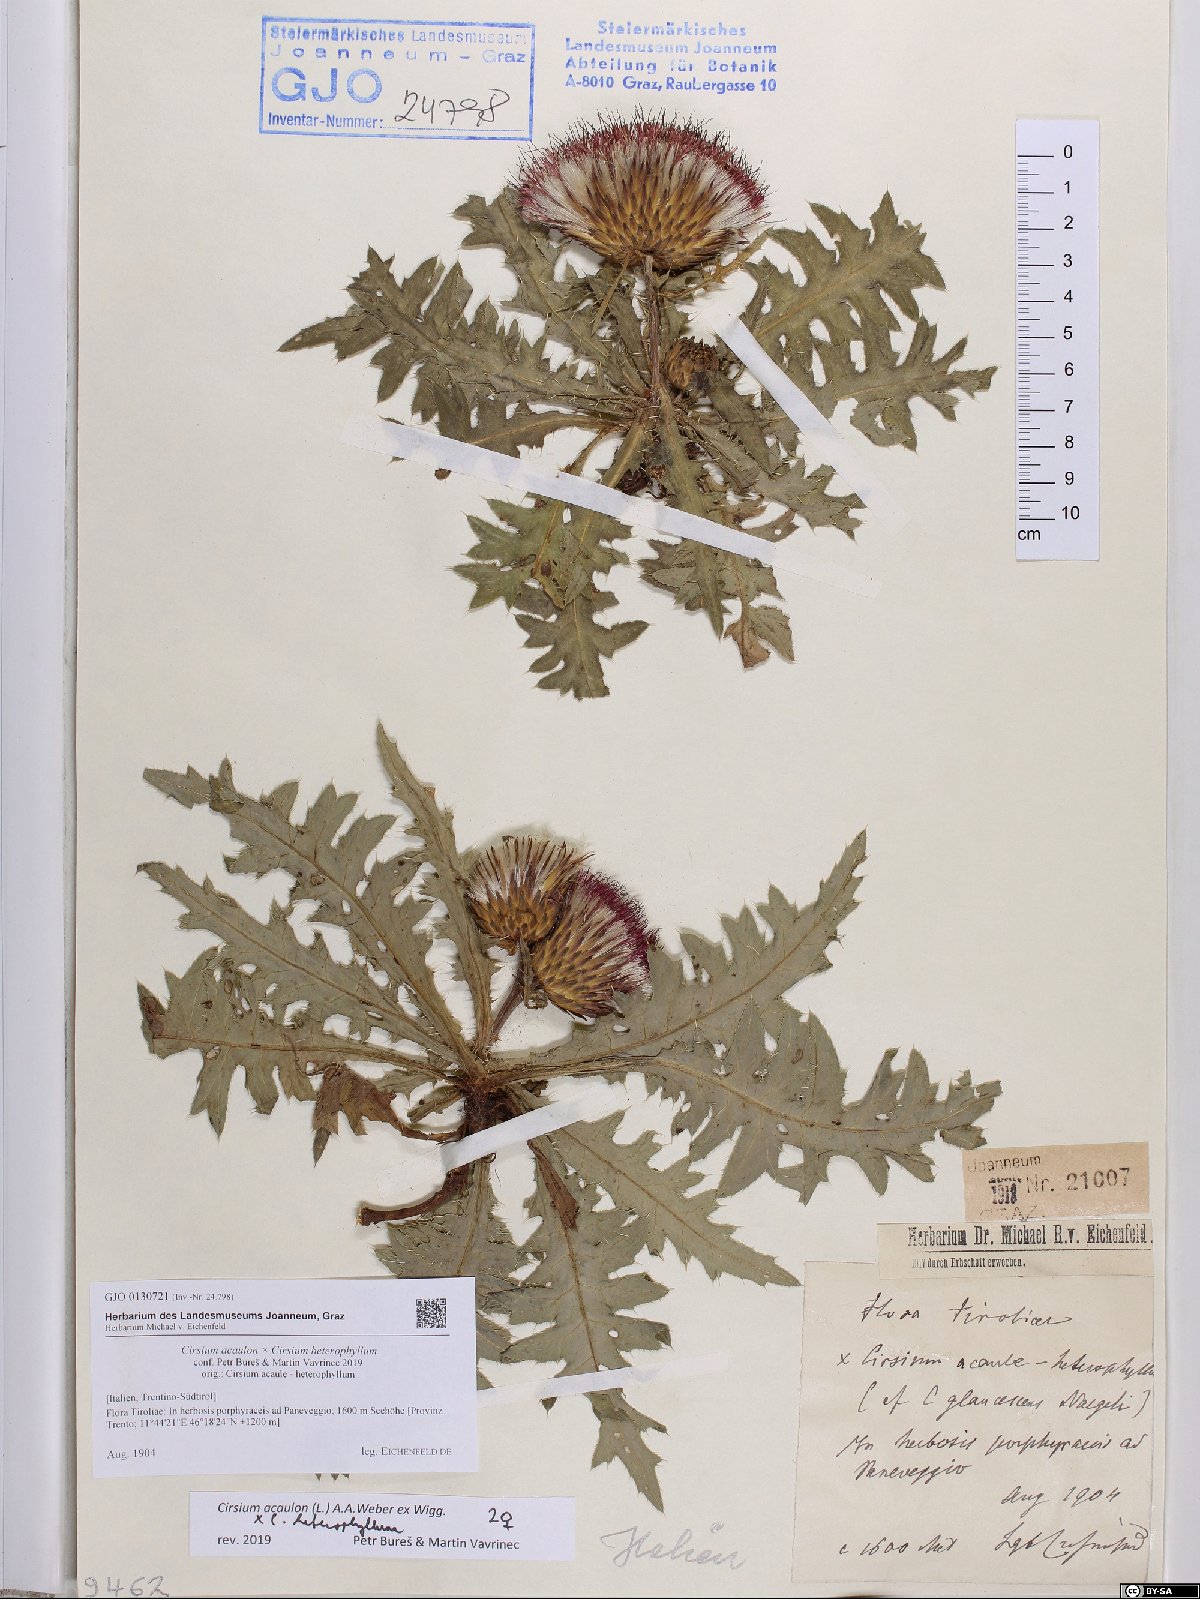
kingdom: Plantae
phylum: Tracheophyta
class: Magnoliopsida
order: Asterales
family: Asteraceae
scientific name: Asteraceae
